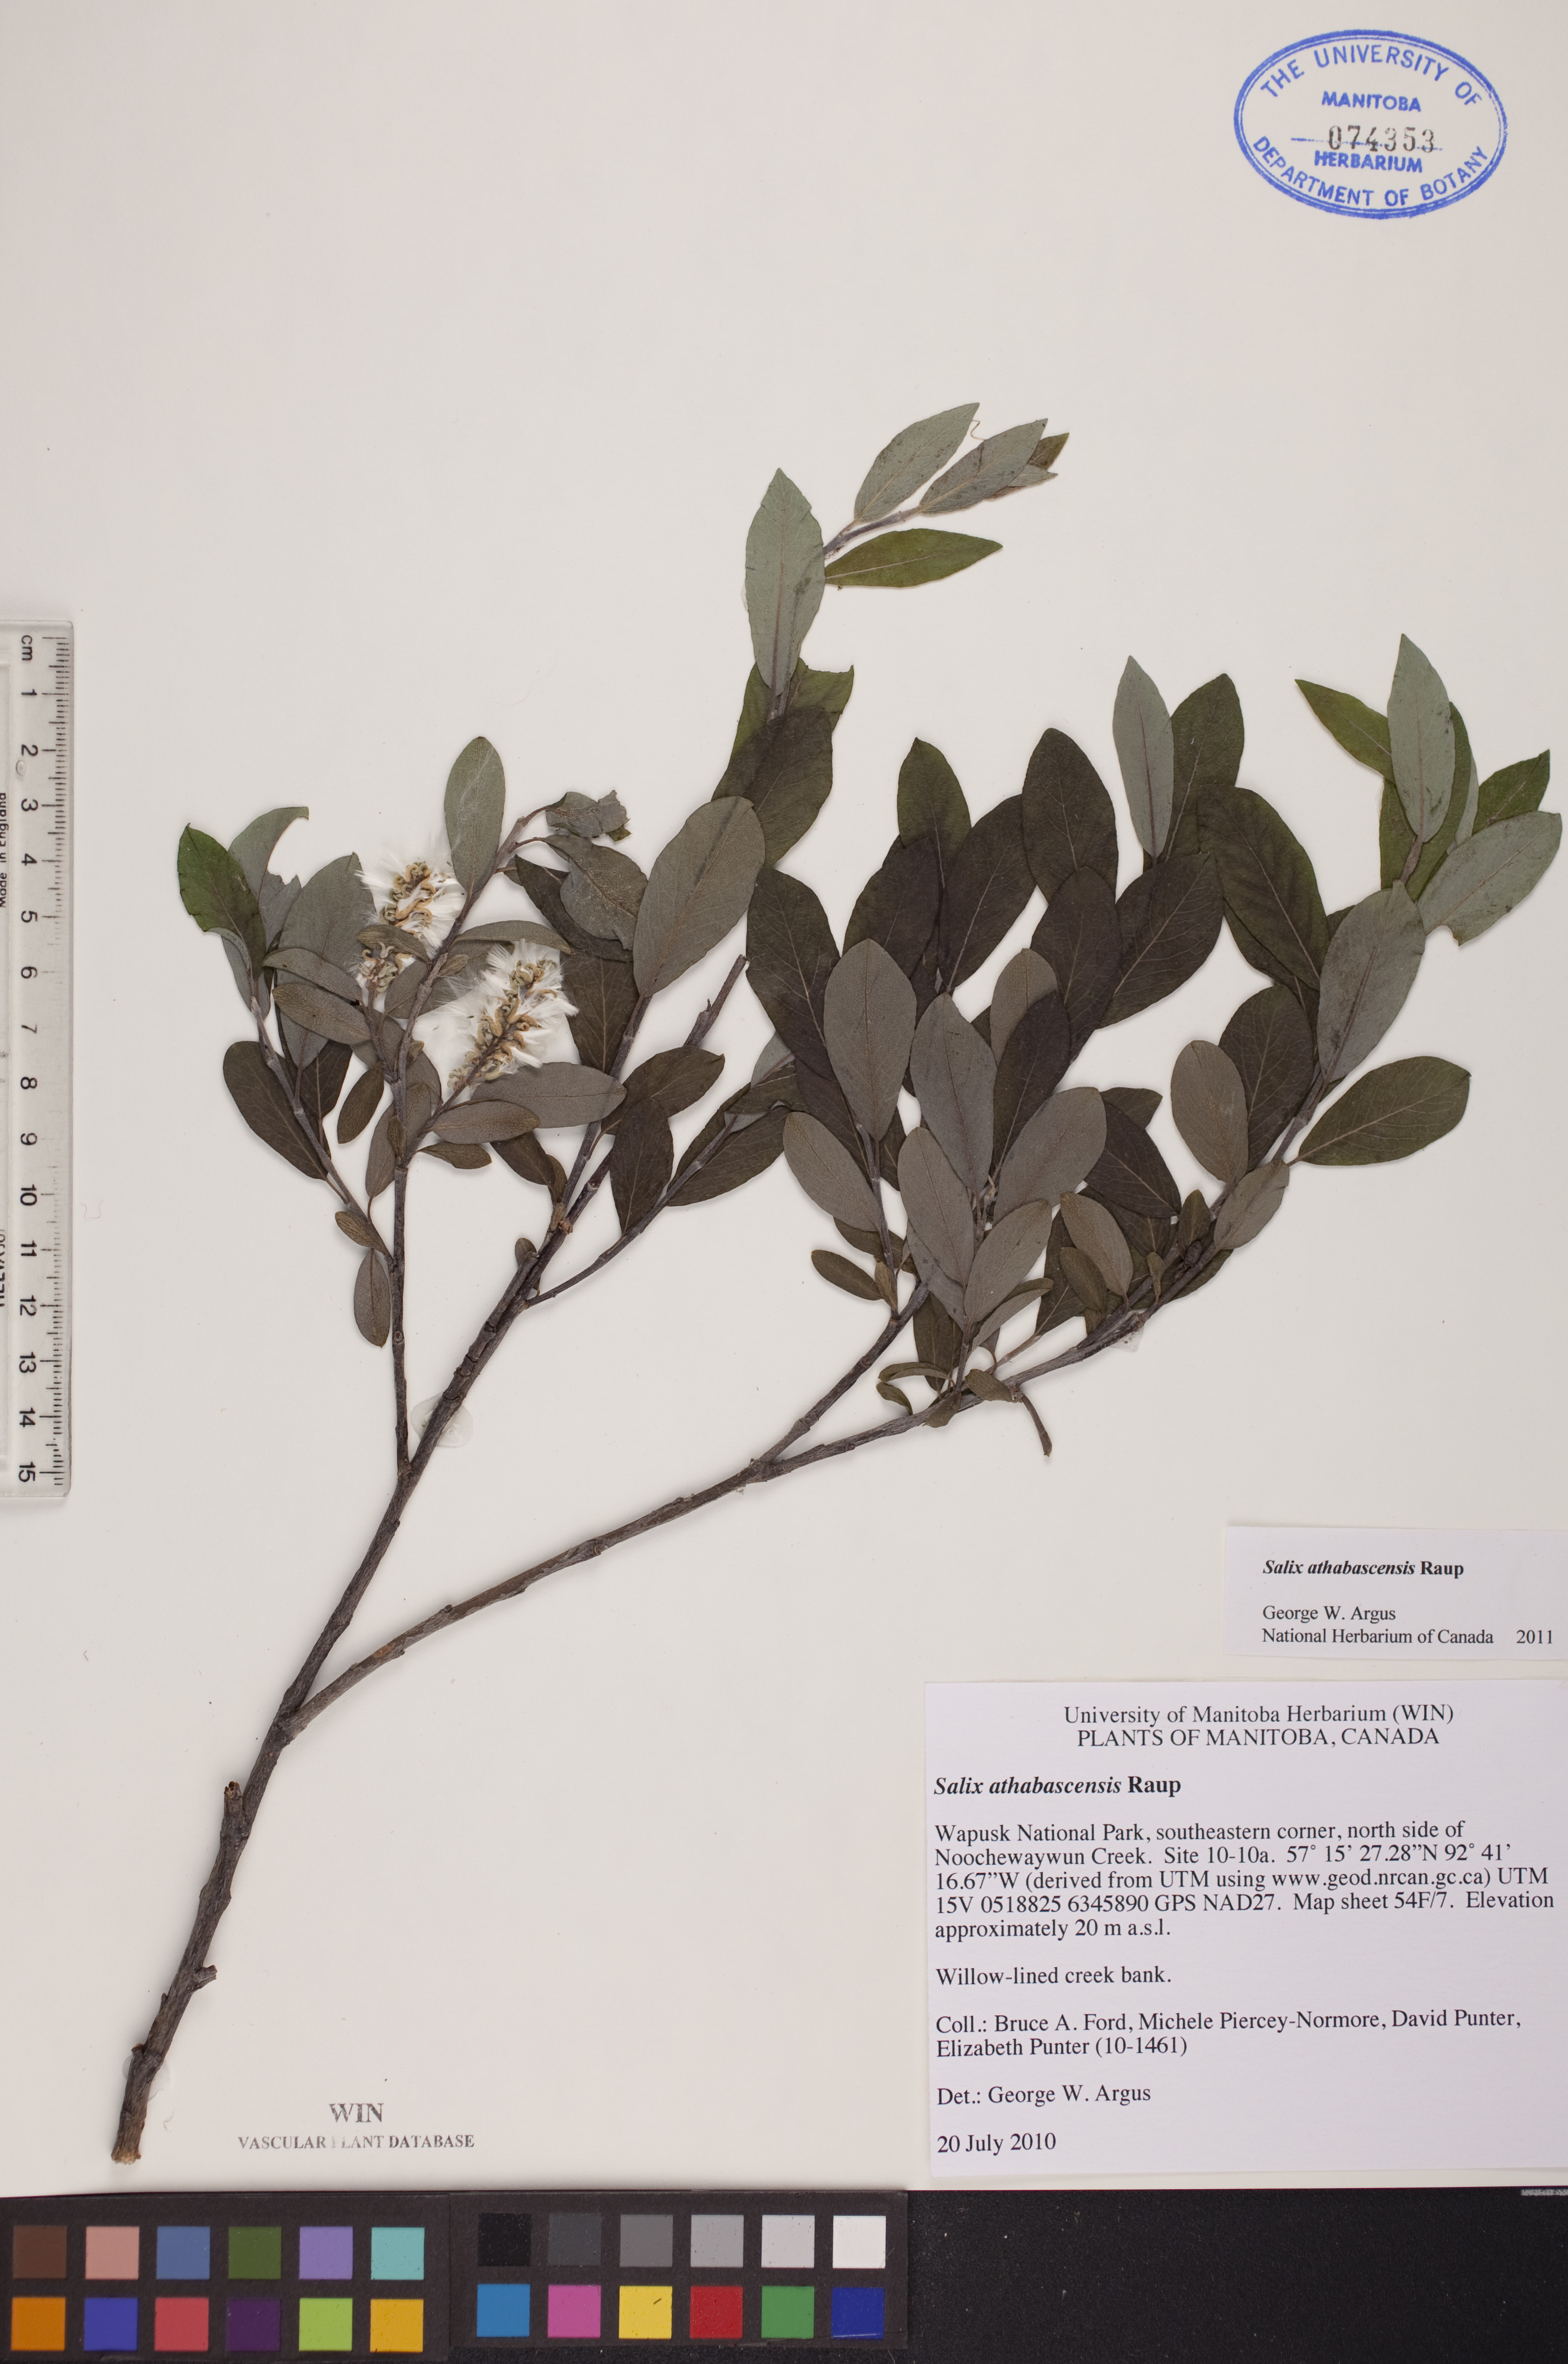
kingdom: Plantae
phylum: Tracheophyta
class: Magnoliopsida
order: Malpighiales
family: Salicaceae
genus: Salix
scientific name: Salix athabascensis
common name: Athabasca willow
